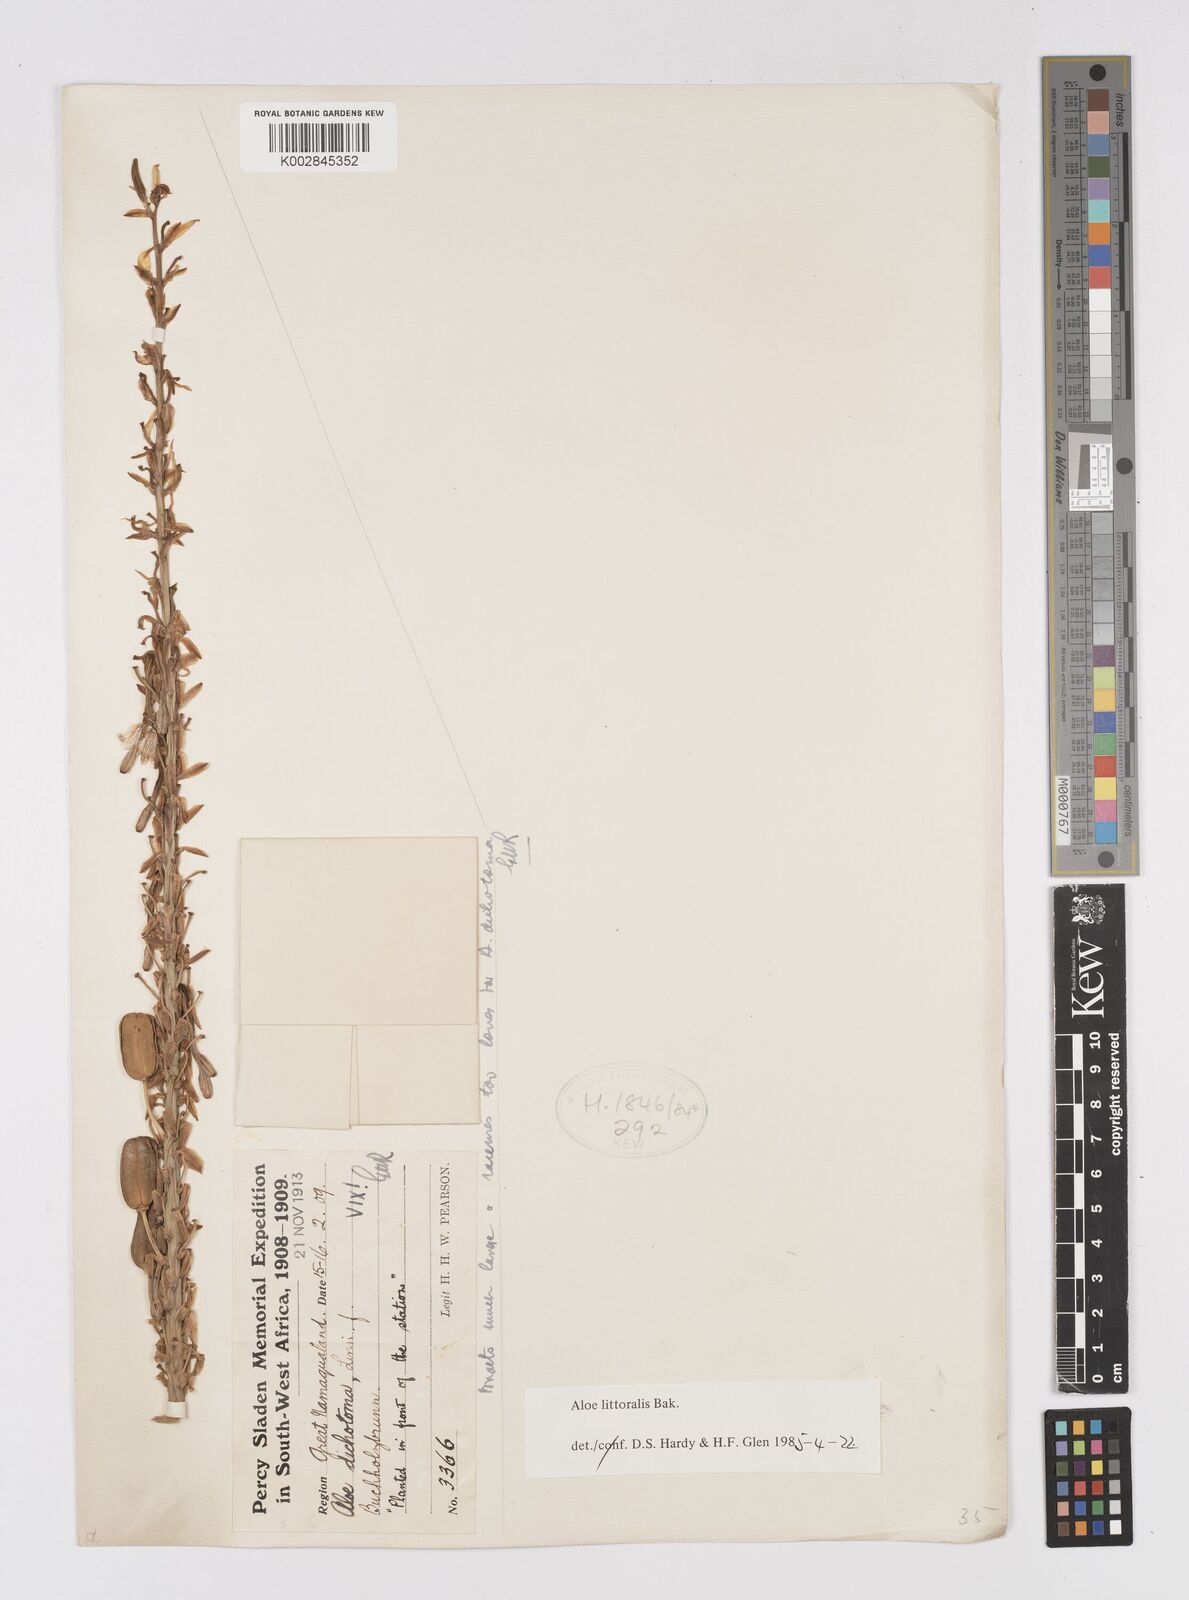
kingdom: Plantae
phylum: Tracheophyta
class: Liliopsida
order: Asparagales
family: Asphodelaceae
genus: Aloe
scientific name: Aloe littoralis
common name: Luanda tree aloe
